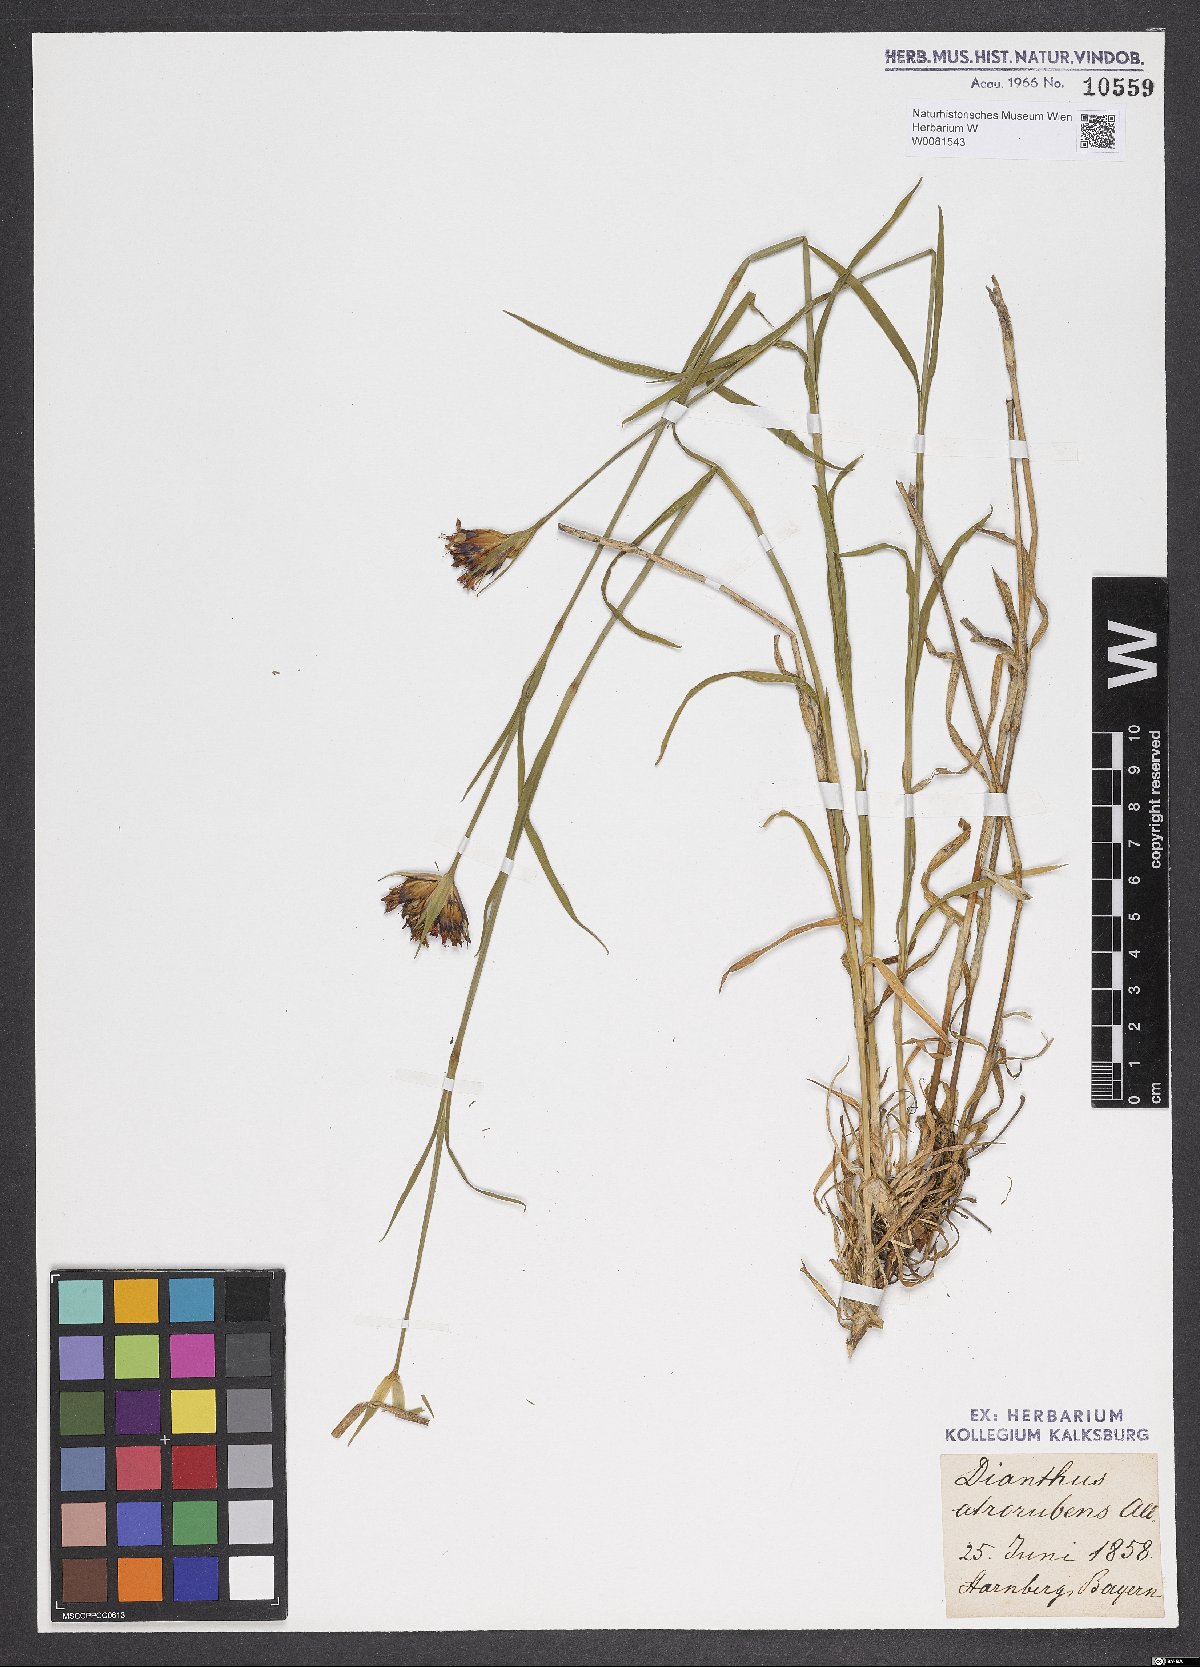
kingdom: Plantae
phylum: Tracheophyta
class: Magnoliopsida
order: Caryophyllales
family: Caryophyllaceae
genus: Dianthus
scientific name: Dianthus carthusianorum
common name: Carthusian pink
